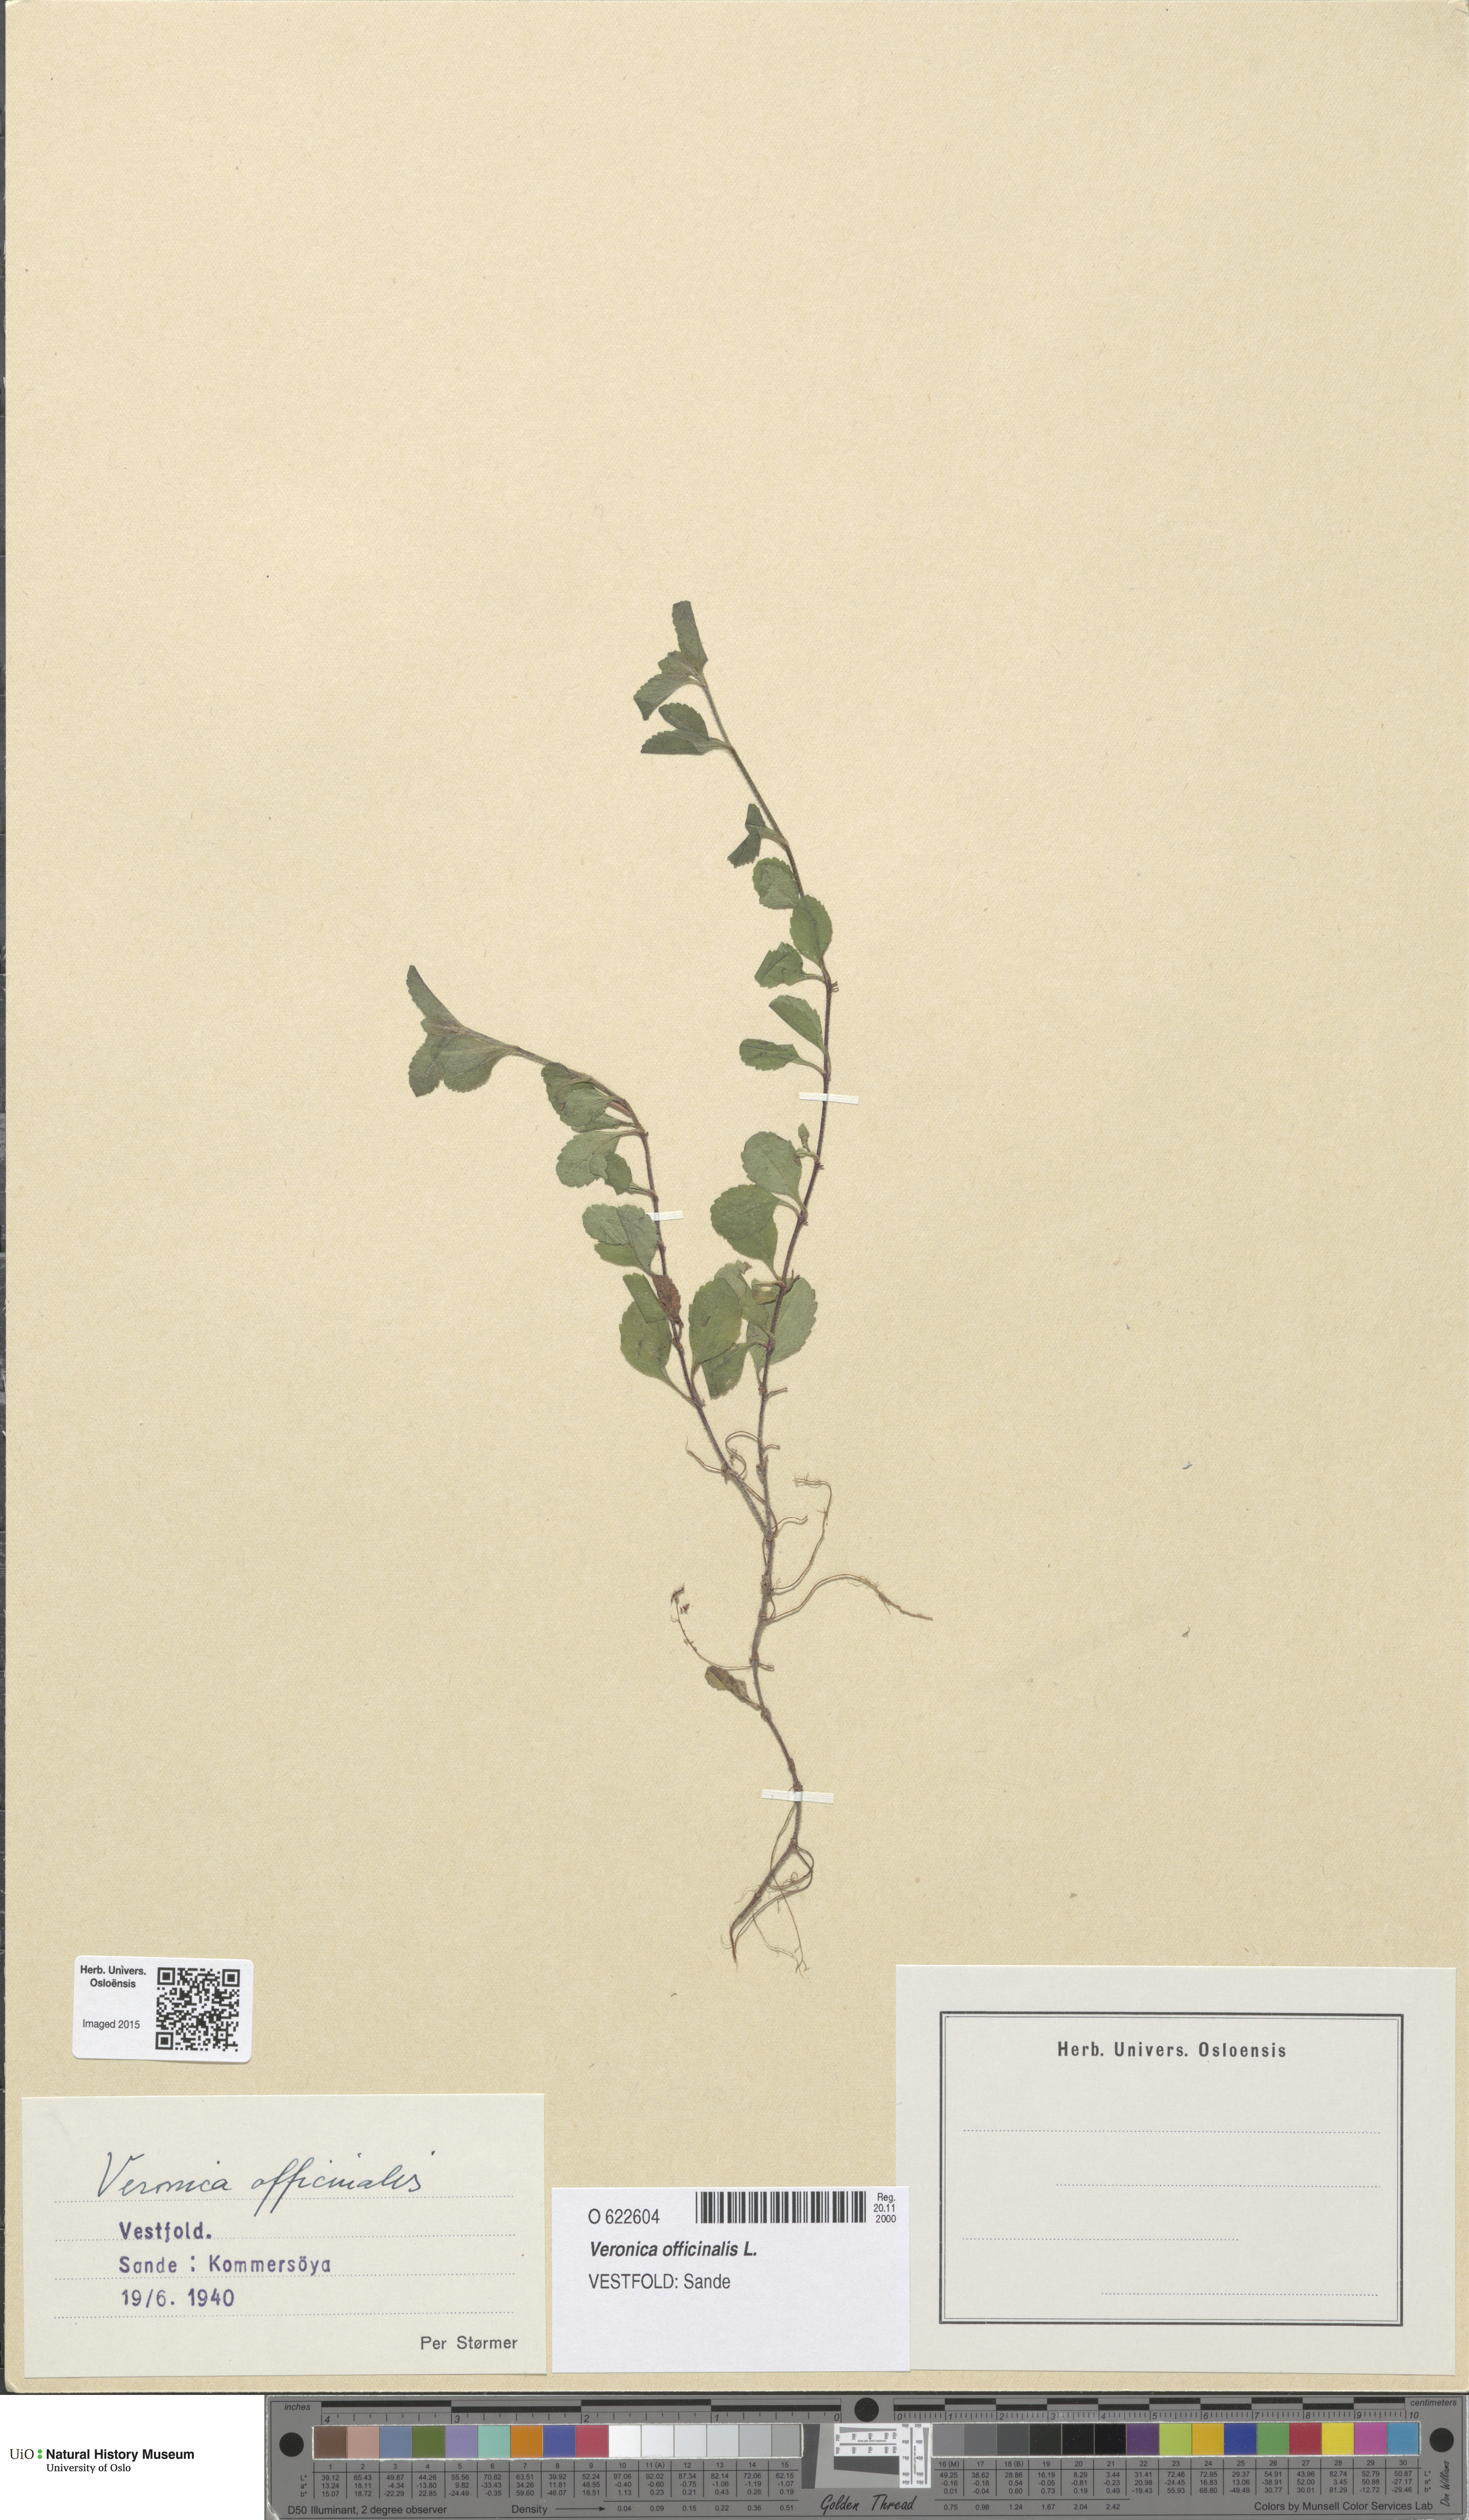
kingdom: Plantae
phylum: Tracheophyta
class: Magnoliopsida
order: Lamiales
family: Plantaginaceae
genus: Veronica
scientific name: Veronica officinalis
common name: Common speedwell
